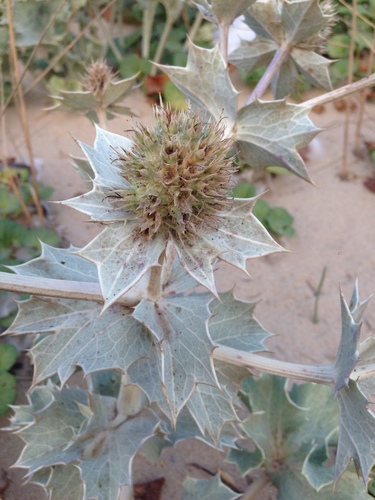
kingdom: Plantae
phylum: Tracheophyta
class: Magnoliopsida
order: Apiales
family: Apiaceae
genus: Eryngium
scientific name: Eryngium maritimum
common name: Sea-holly
